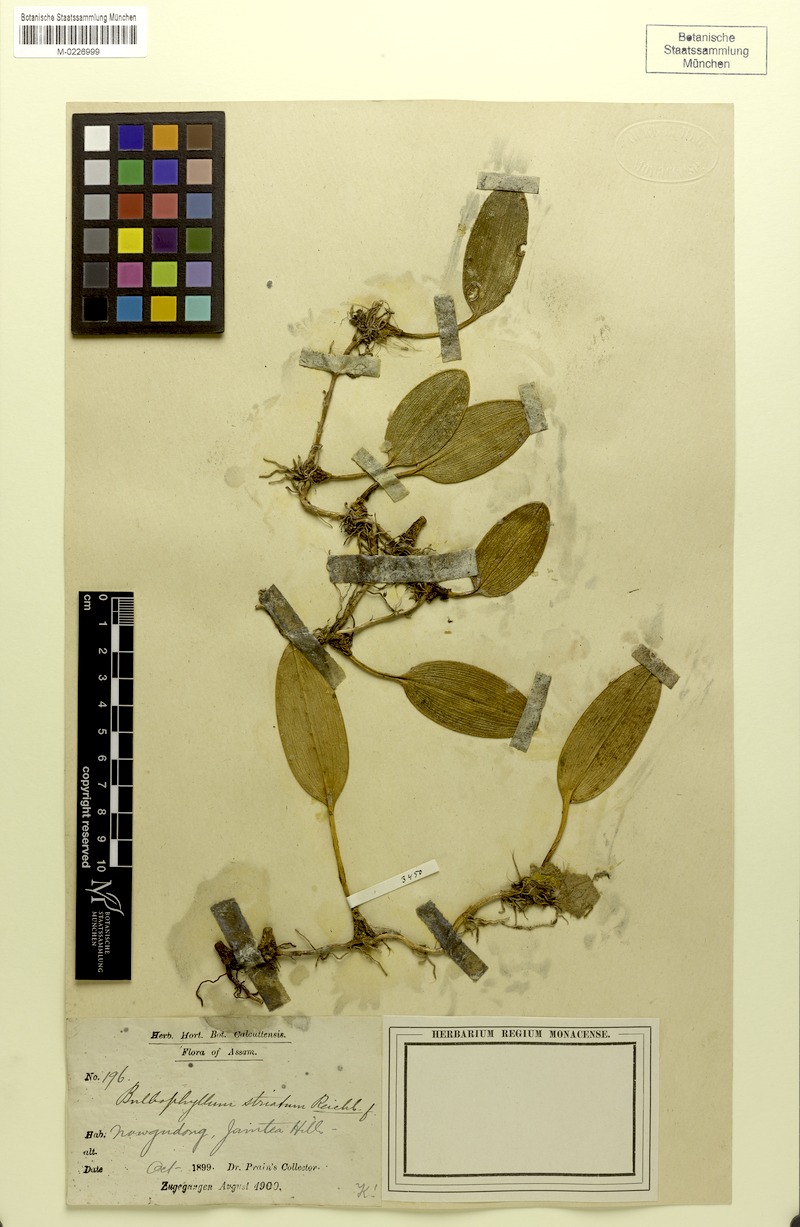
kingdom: Plantae
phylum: Tracheophyta
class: Liliopsida
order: Asparagales
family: Orchidaceae
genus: Bulbophyllum
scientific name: Bulbophyllum striatum
